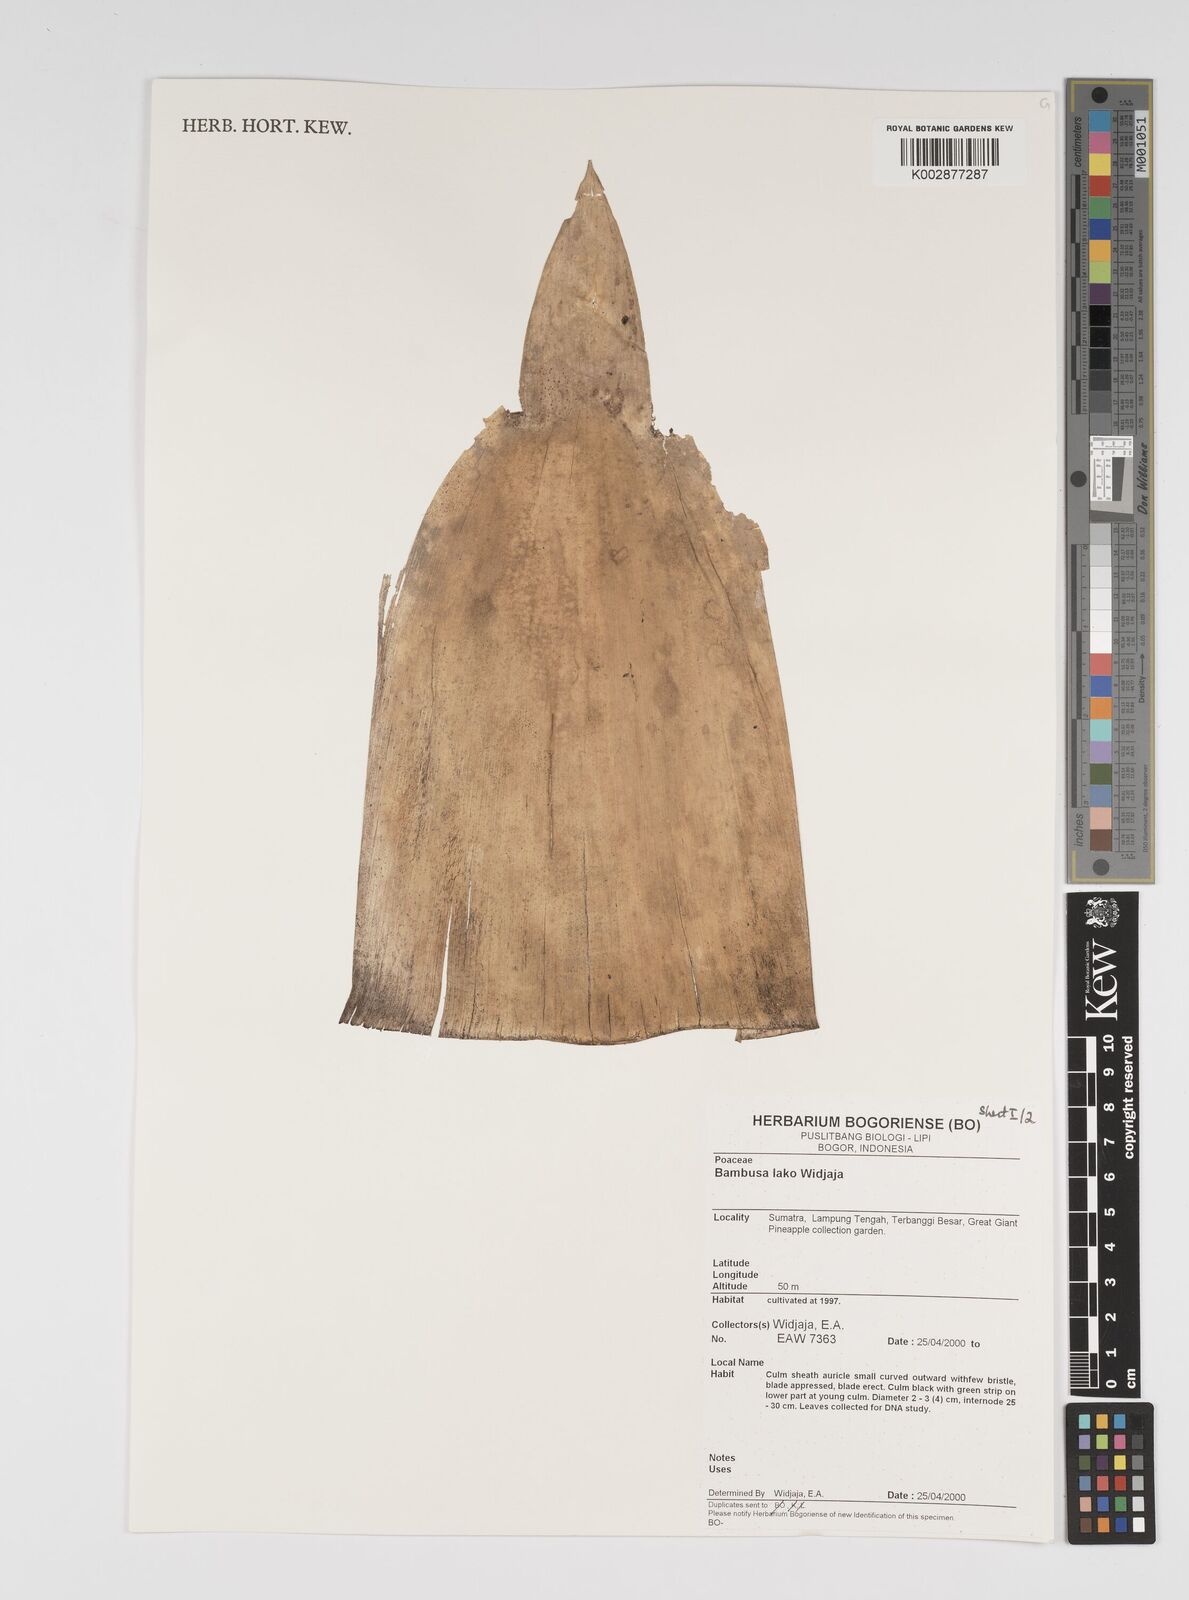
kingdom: Plantae
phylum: Tracheophyta
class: Liliopsida
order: Poales
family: Poaceae
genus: Bambusa
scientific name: Bambusa lako
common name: Timor black bamboo
